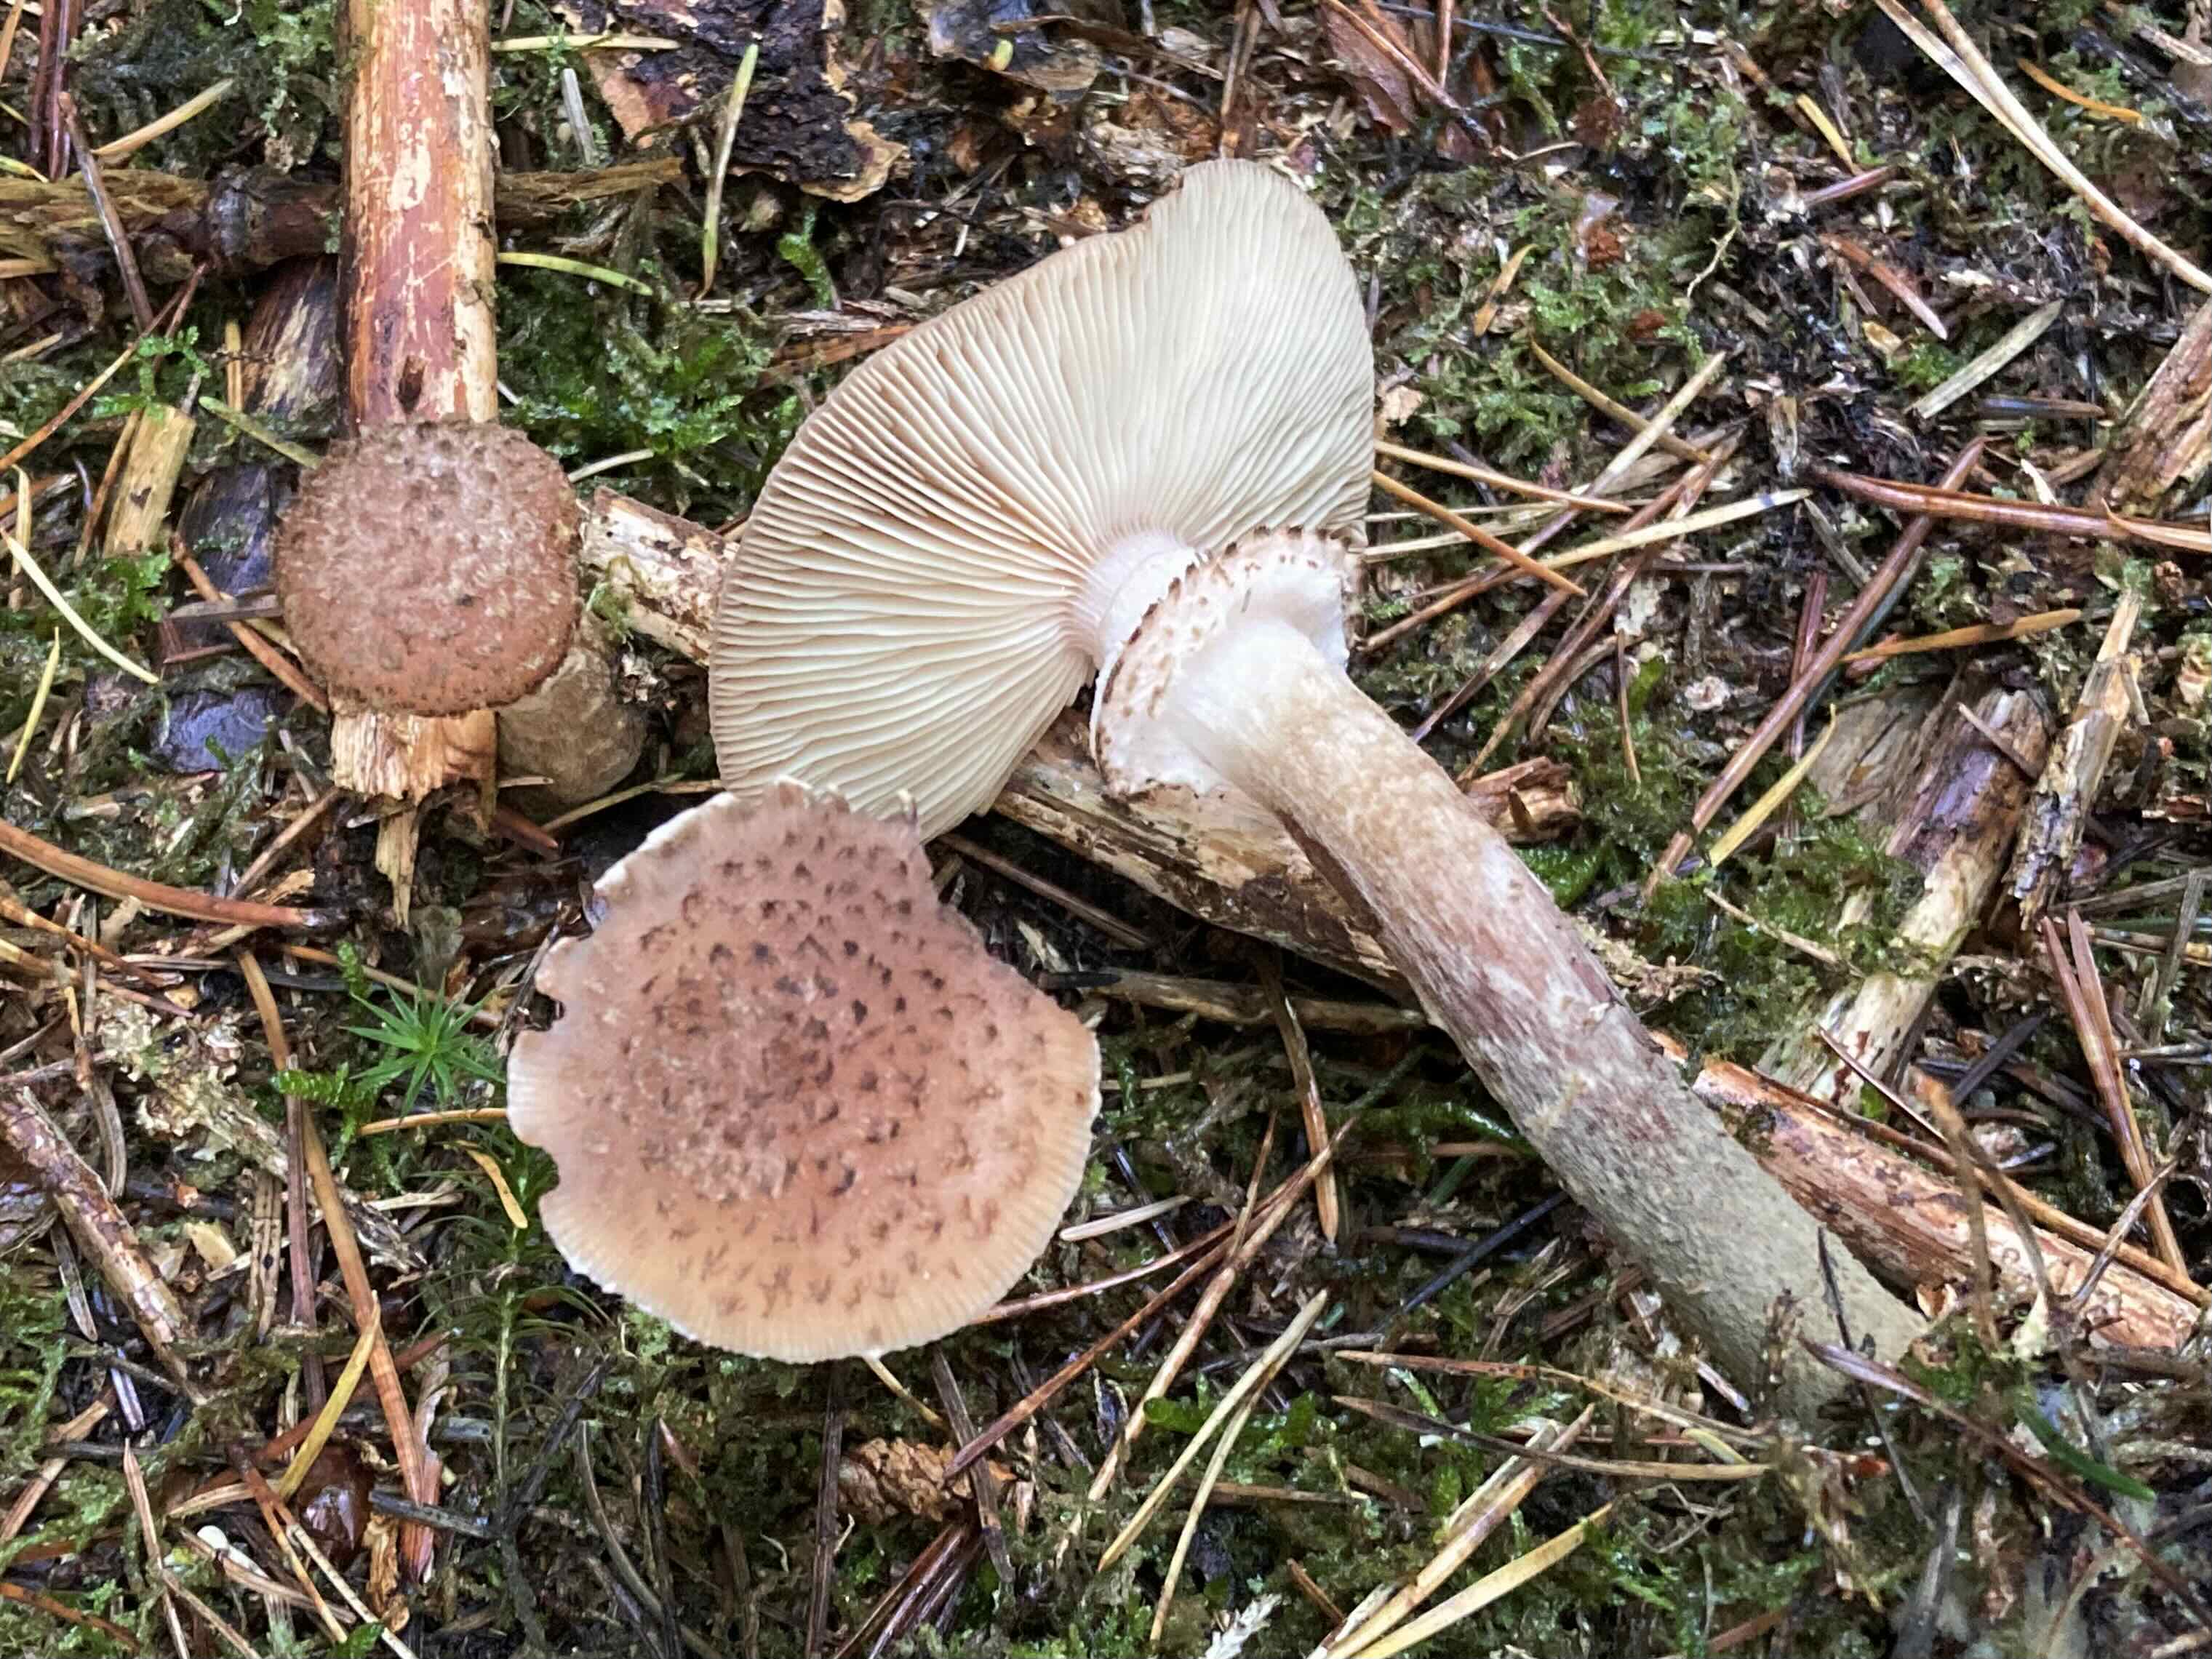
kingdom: Fungi
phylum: Basidiomycota
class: Agaricomycetes
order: Agaricales
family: Physalacriaceae
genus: Armillaria
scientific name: Armillaria ostoyae
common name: mørk honningsvamp
